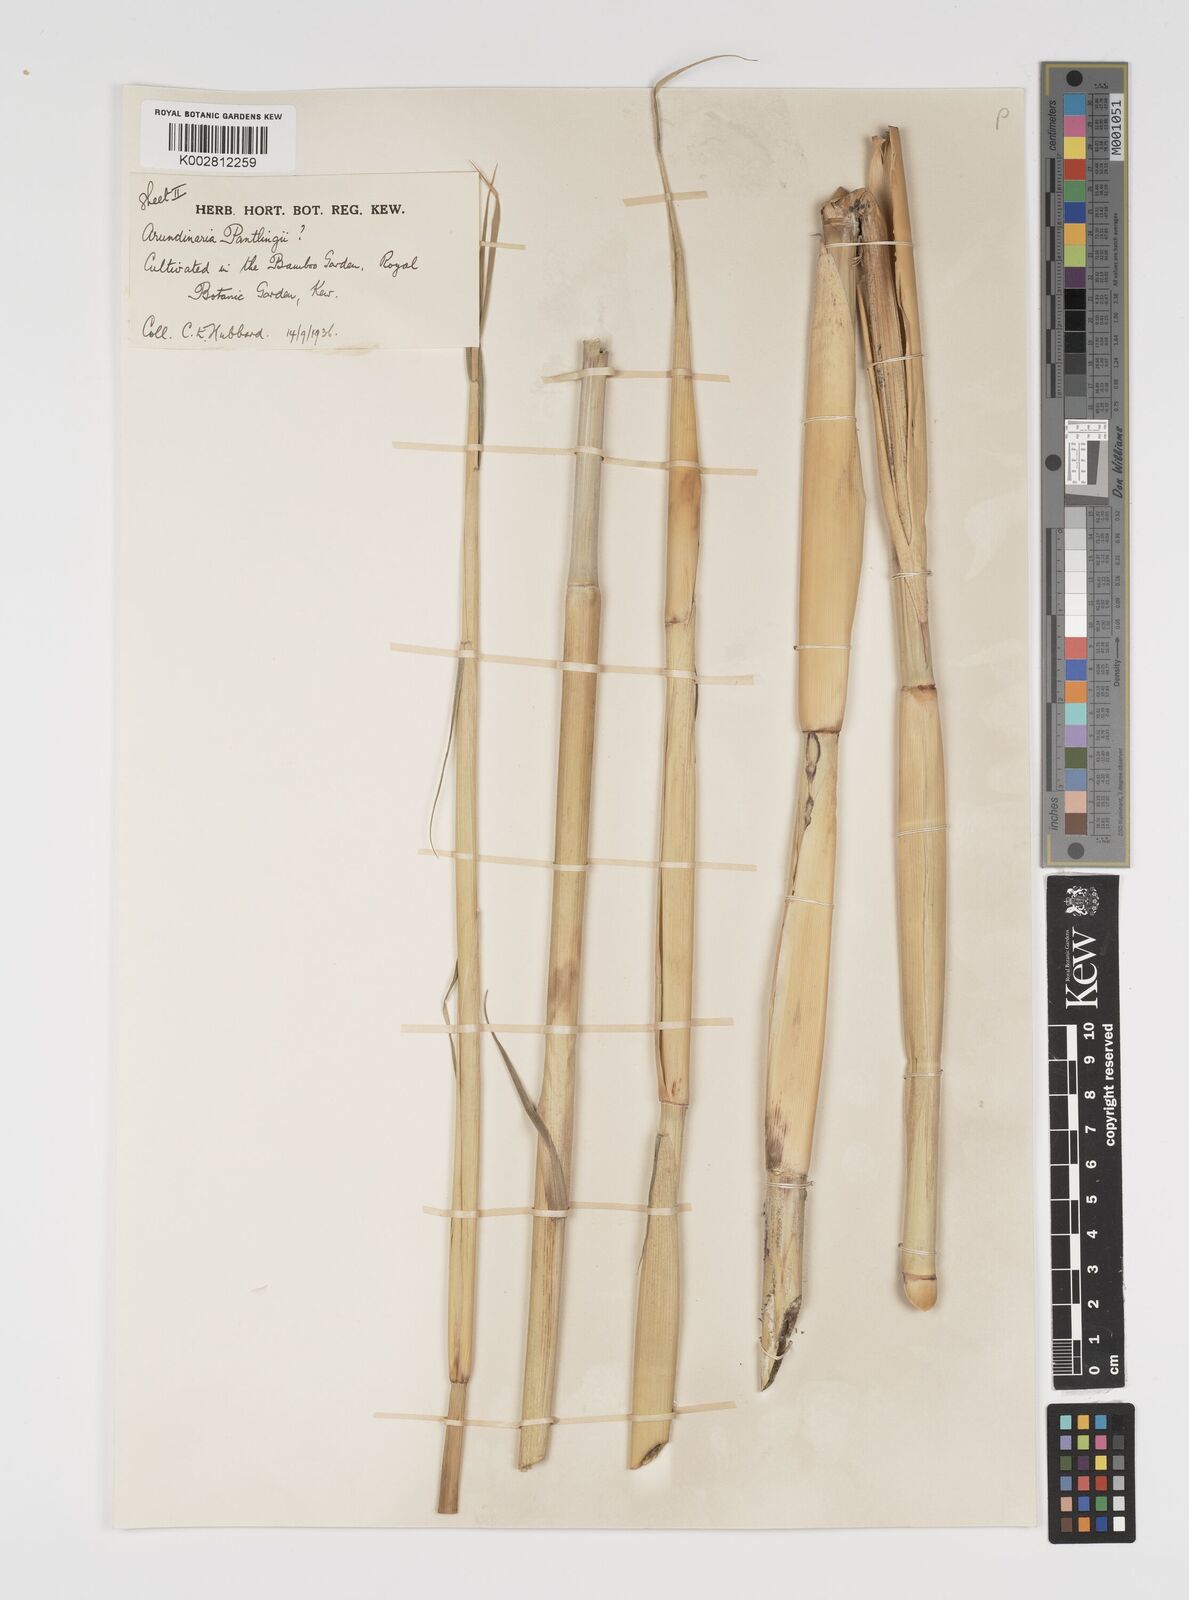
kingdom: Plantae
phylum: Tracheophyta
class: Liliopsida
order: Poales
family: Poaceae
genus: Yushania
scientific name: Yushania
